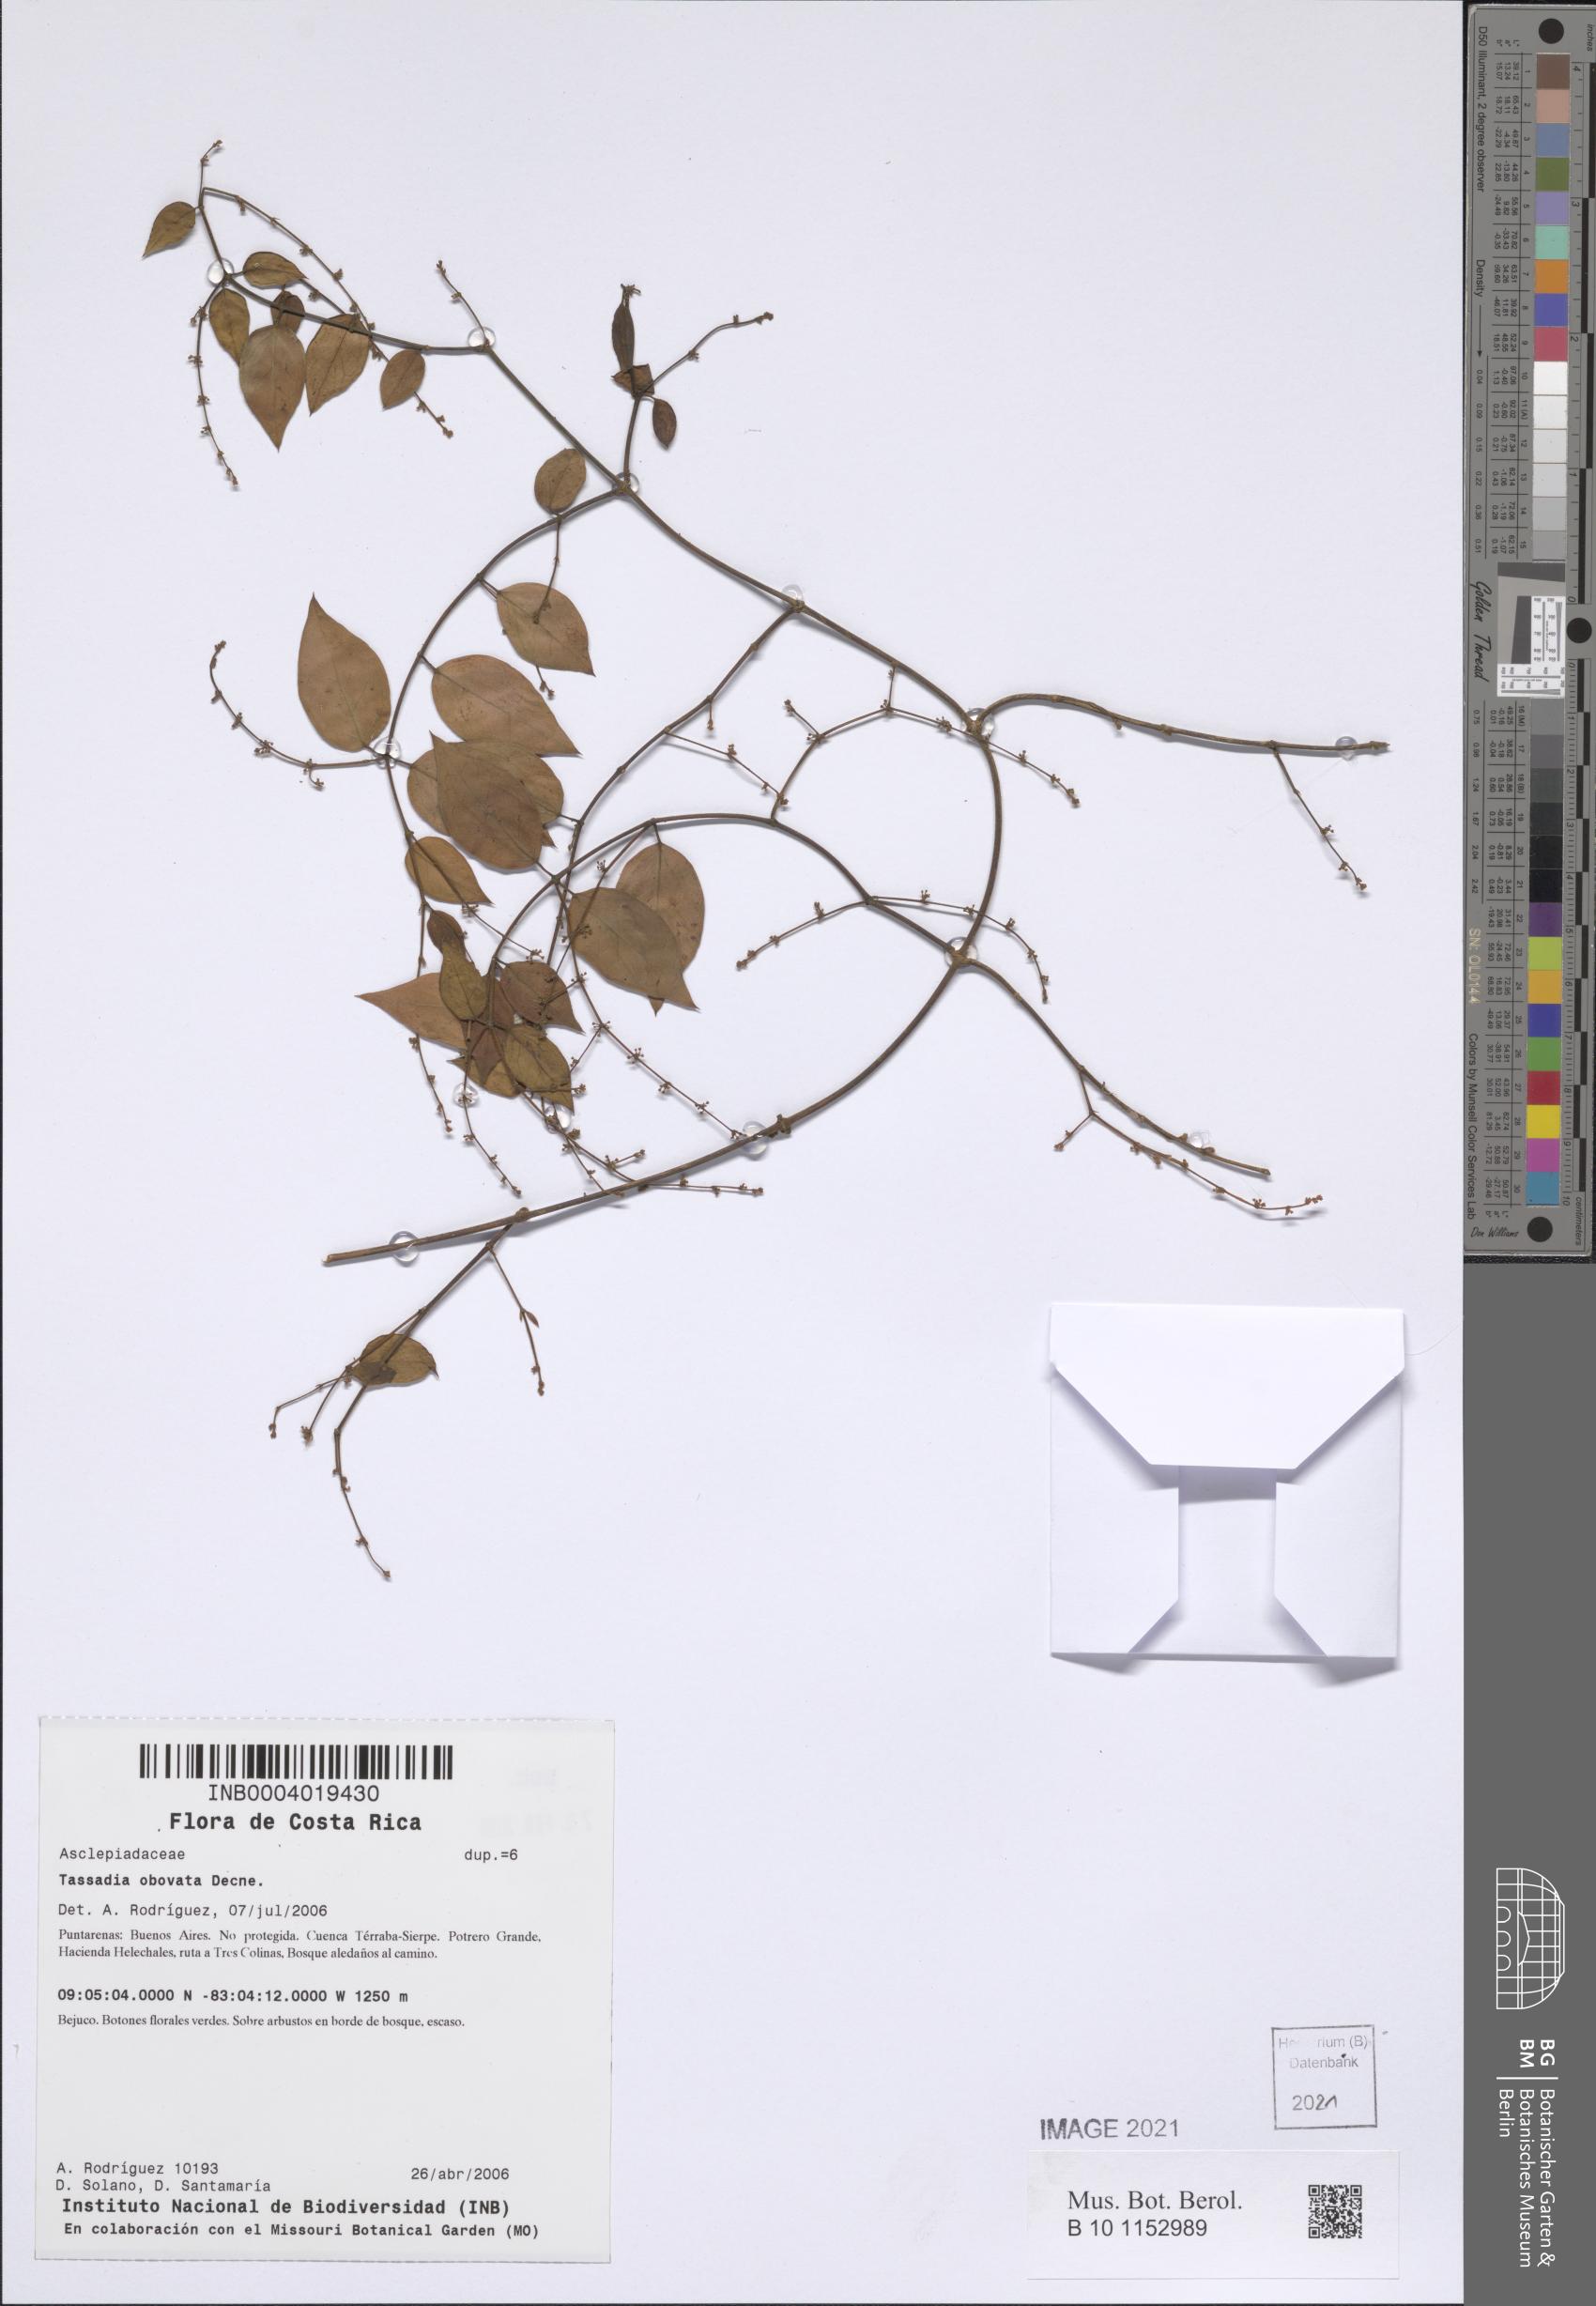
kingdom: Plantae
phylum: Tracheophyta
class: Magnoliopsida
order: Gentianales
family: Apocynaceae
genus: Tassadia
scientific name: Tassadia obovata
